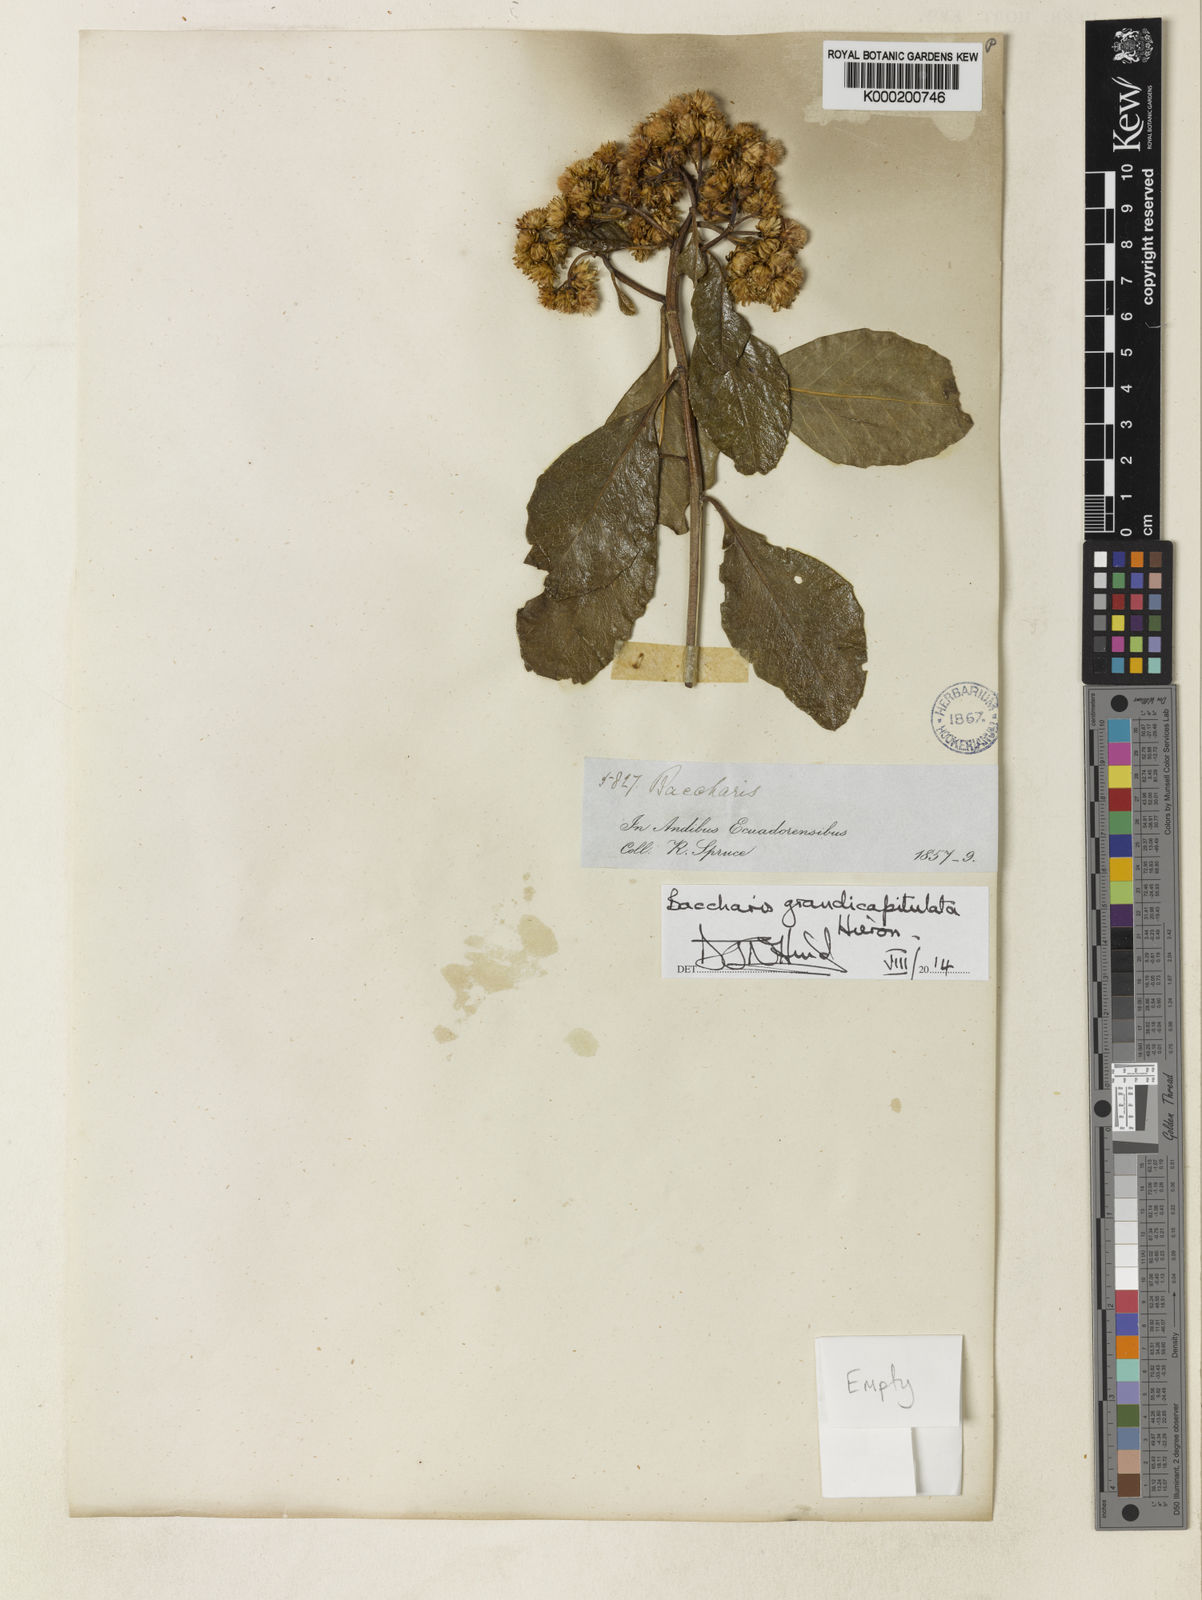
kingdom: Plantae
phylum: Tracheophyta
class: Magnoliopsida
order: Asterales
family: Asteraceae
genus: Baccharis
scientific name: Baccharis grandicapitulata
